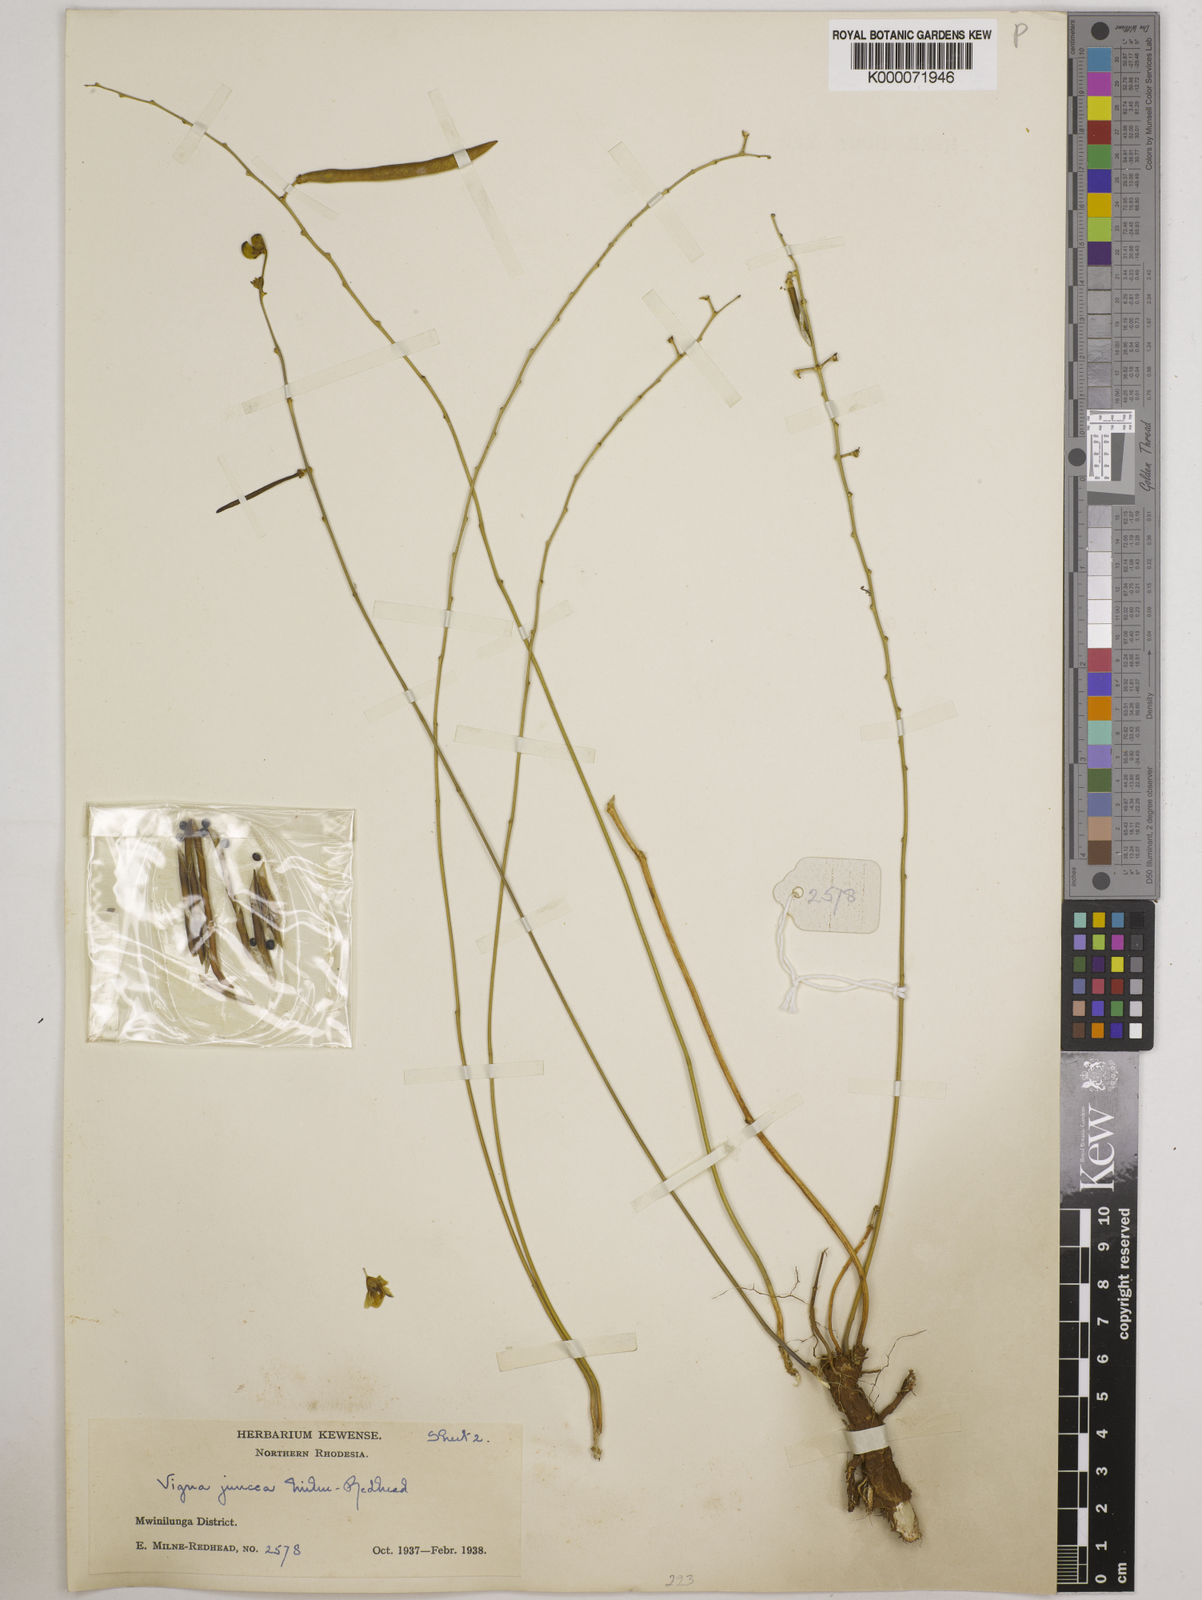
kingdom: Plantae
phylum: Tracheophyta
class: Magnoliopsida
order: Fabales
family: Fabaceae
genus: Vigna
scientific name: Vigna juncea
